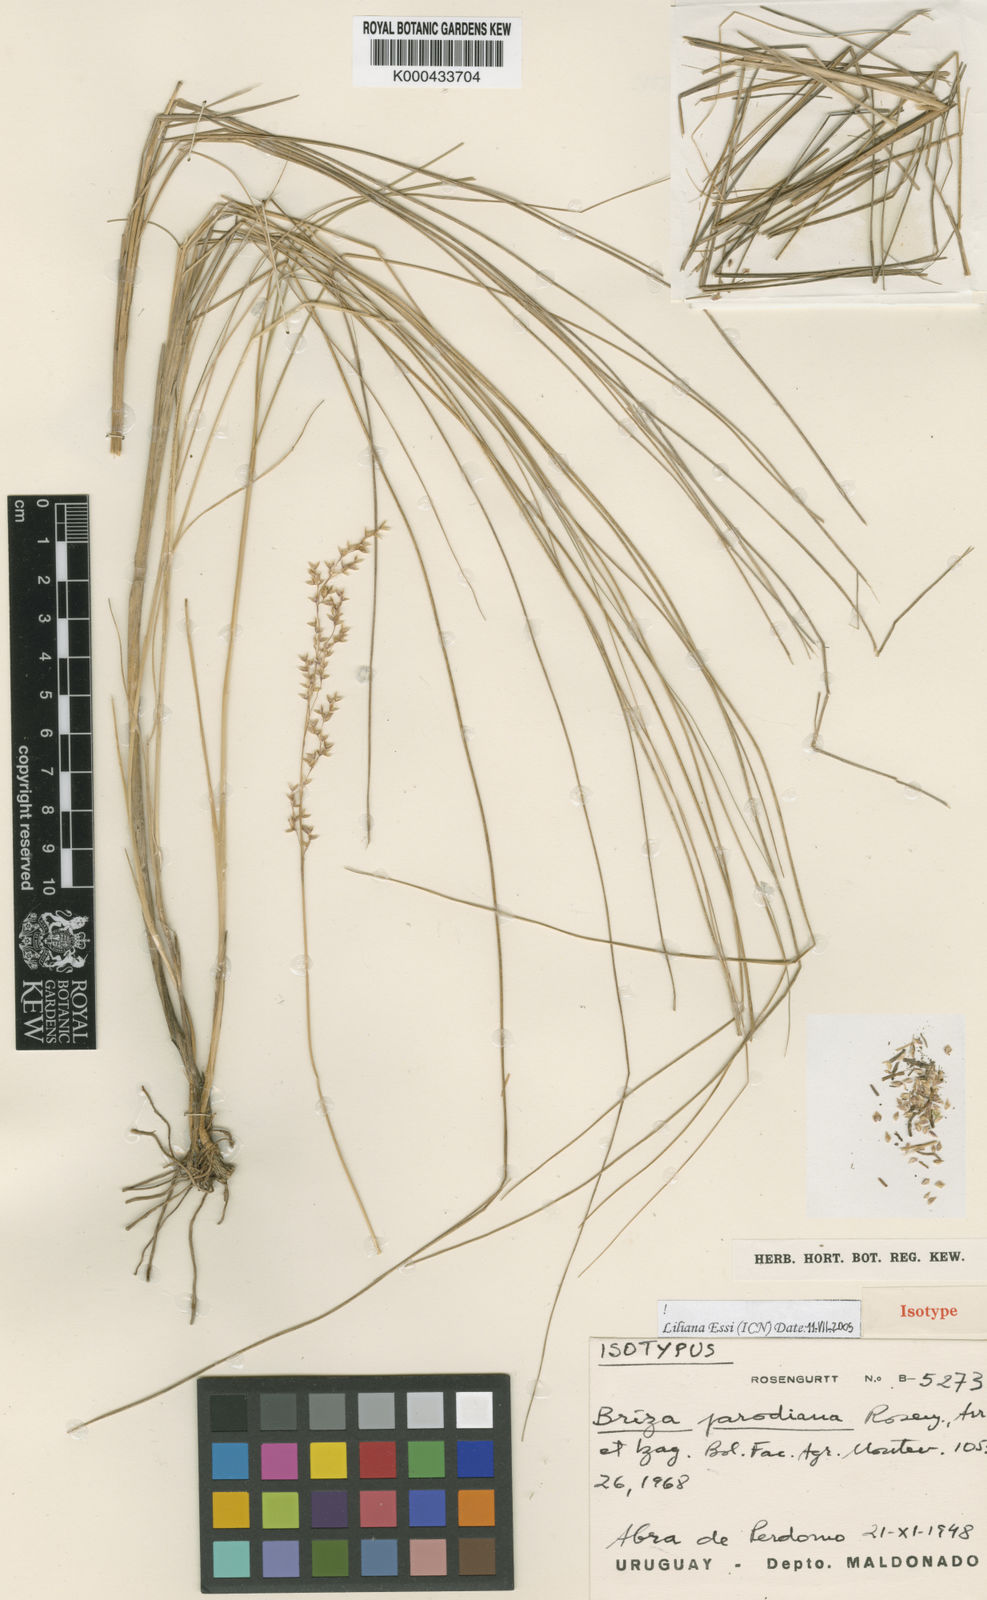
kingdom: Plantae
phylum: Tracheophyta
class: Liliopsida
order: Poales
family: Poaceae
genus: Chascolytrum
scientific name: Chascolytrum parodianum
